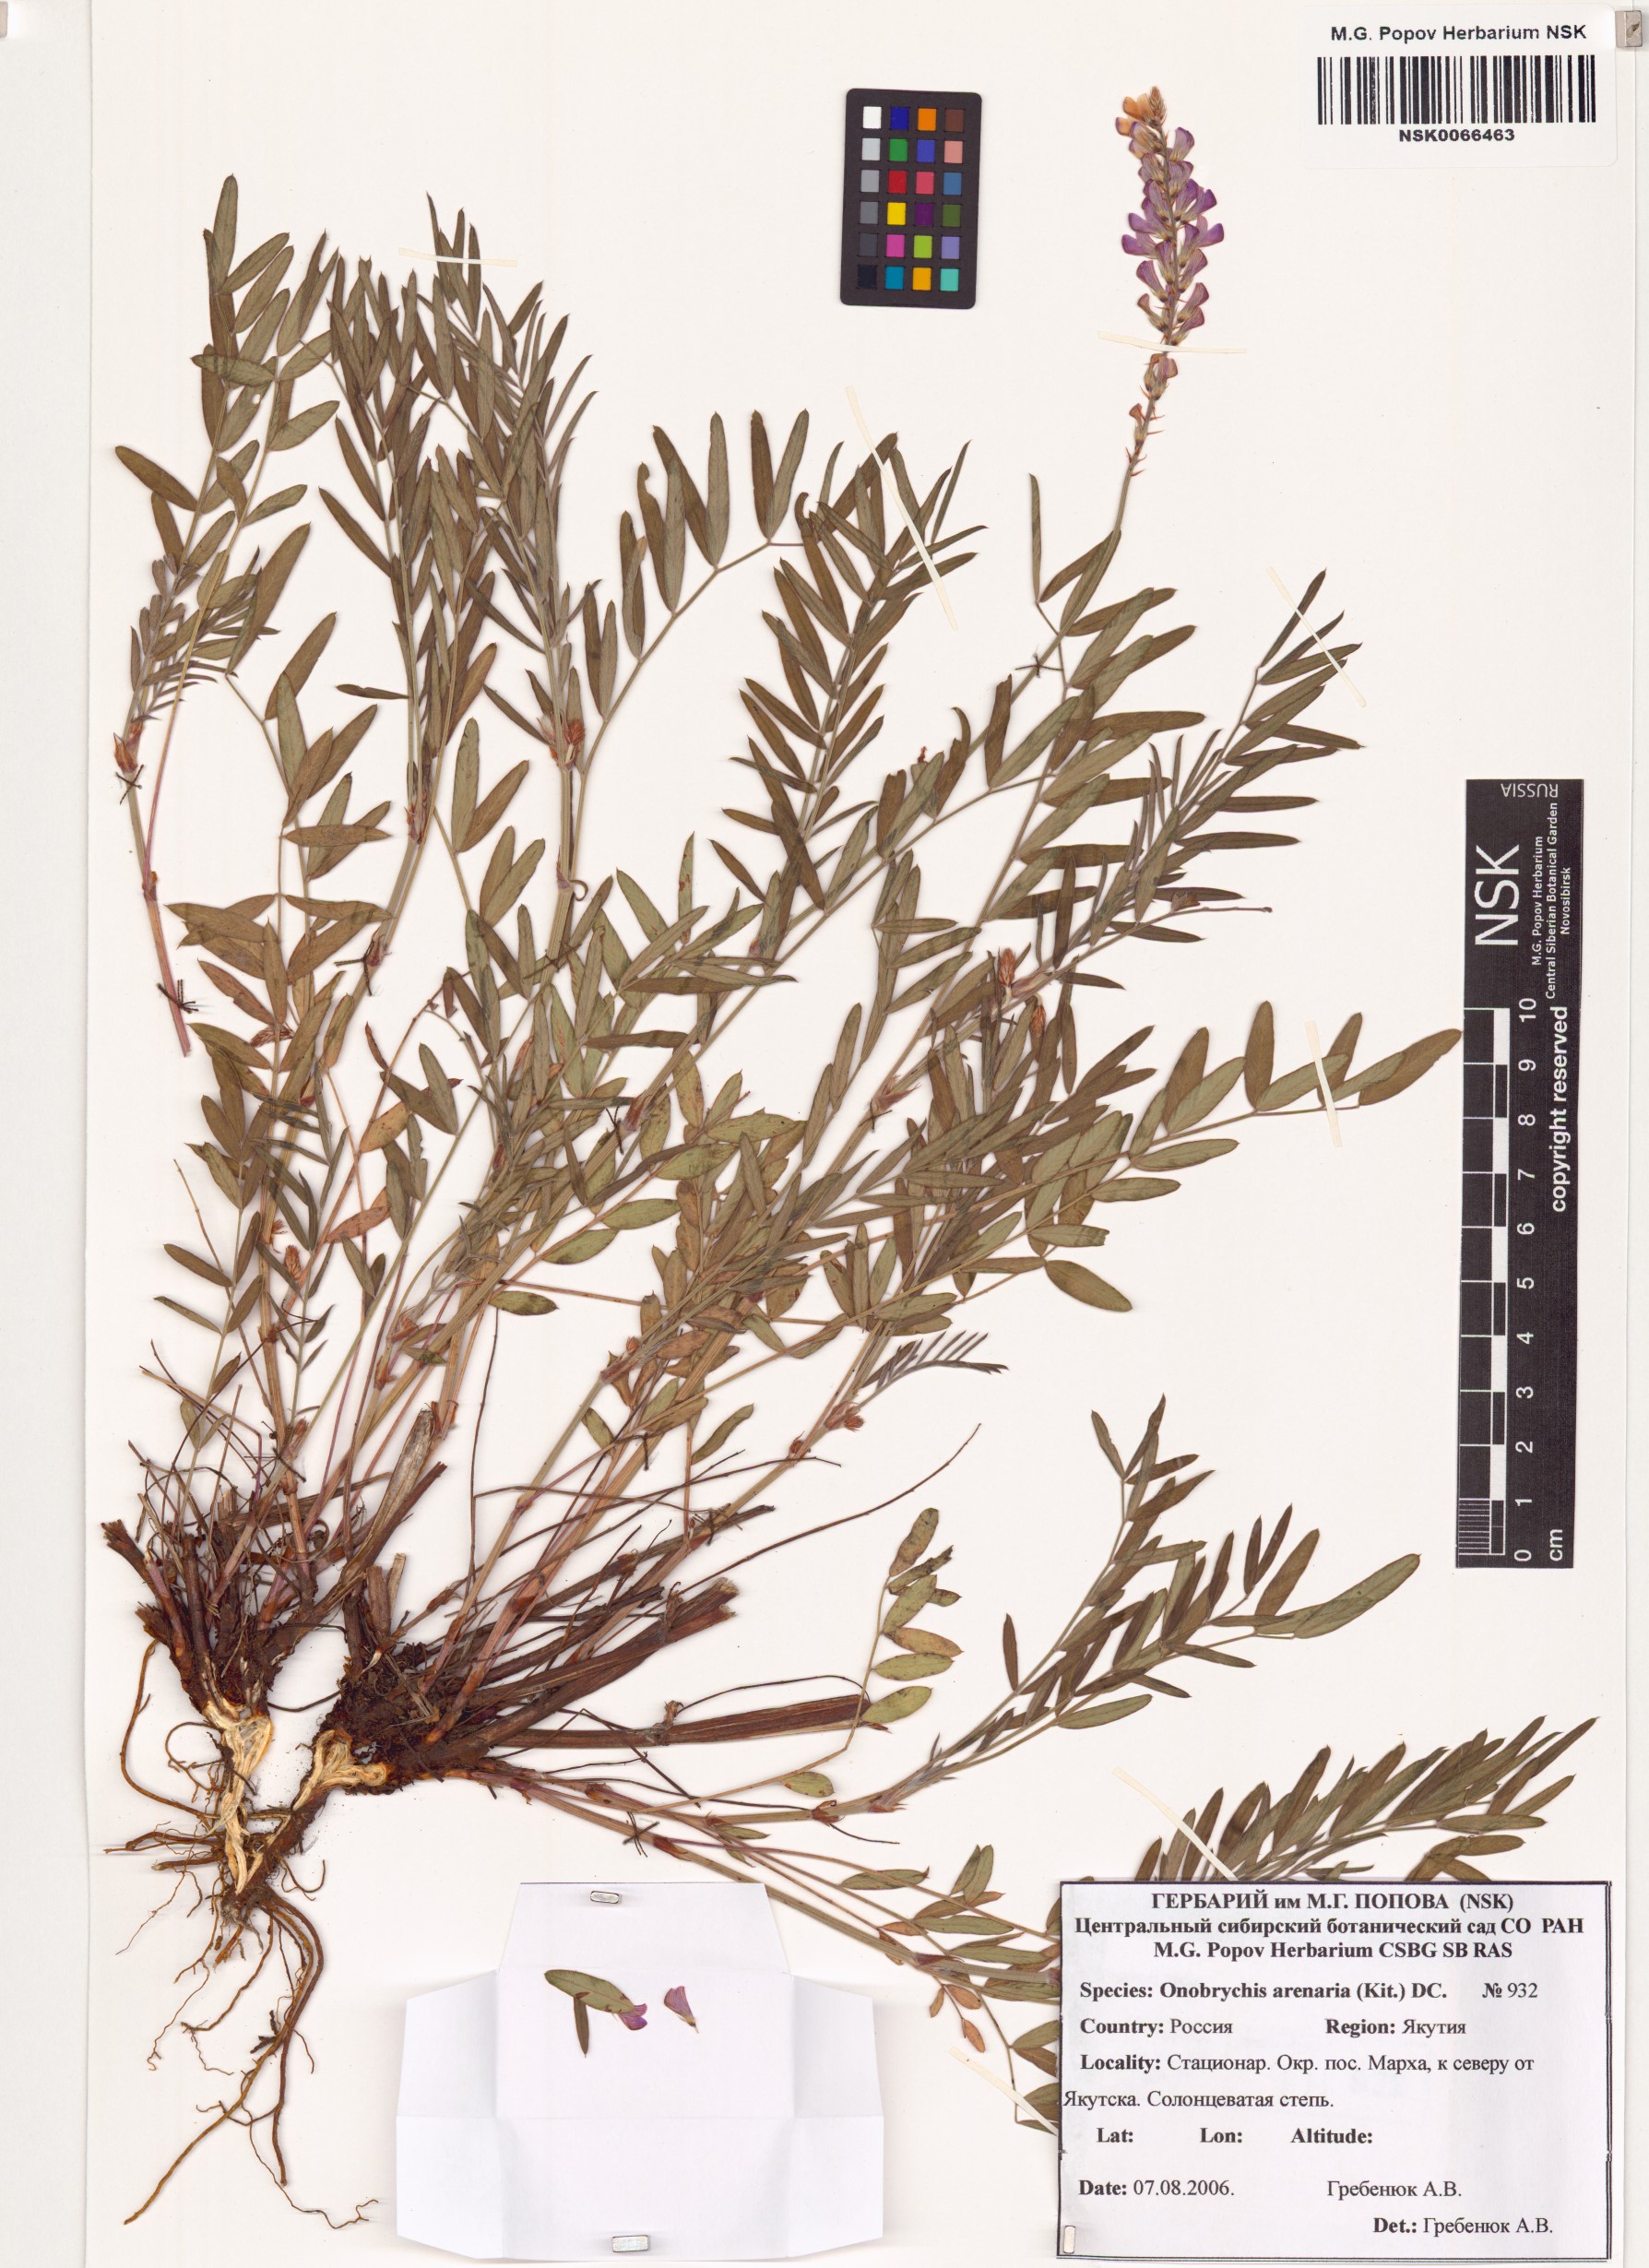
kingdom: Plantae
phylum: Tracheophyta
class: Magnoliopsida
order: Fabales
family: Fabaceae
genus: Onobrychis
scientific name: Onobrychis arenaria
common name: Sand esparcet
